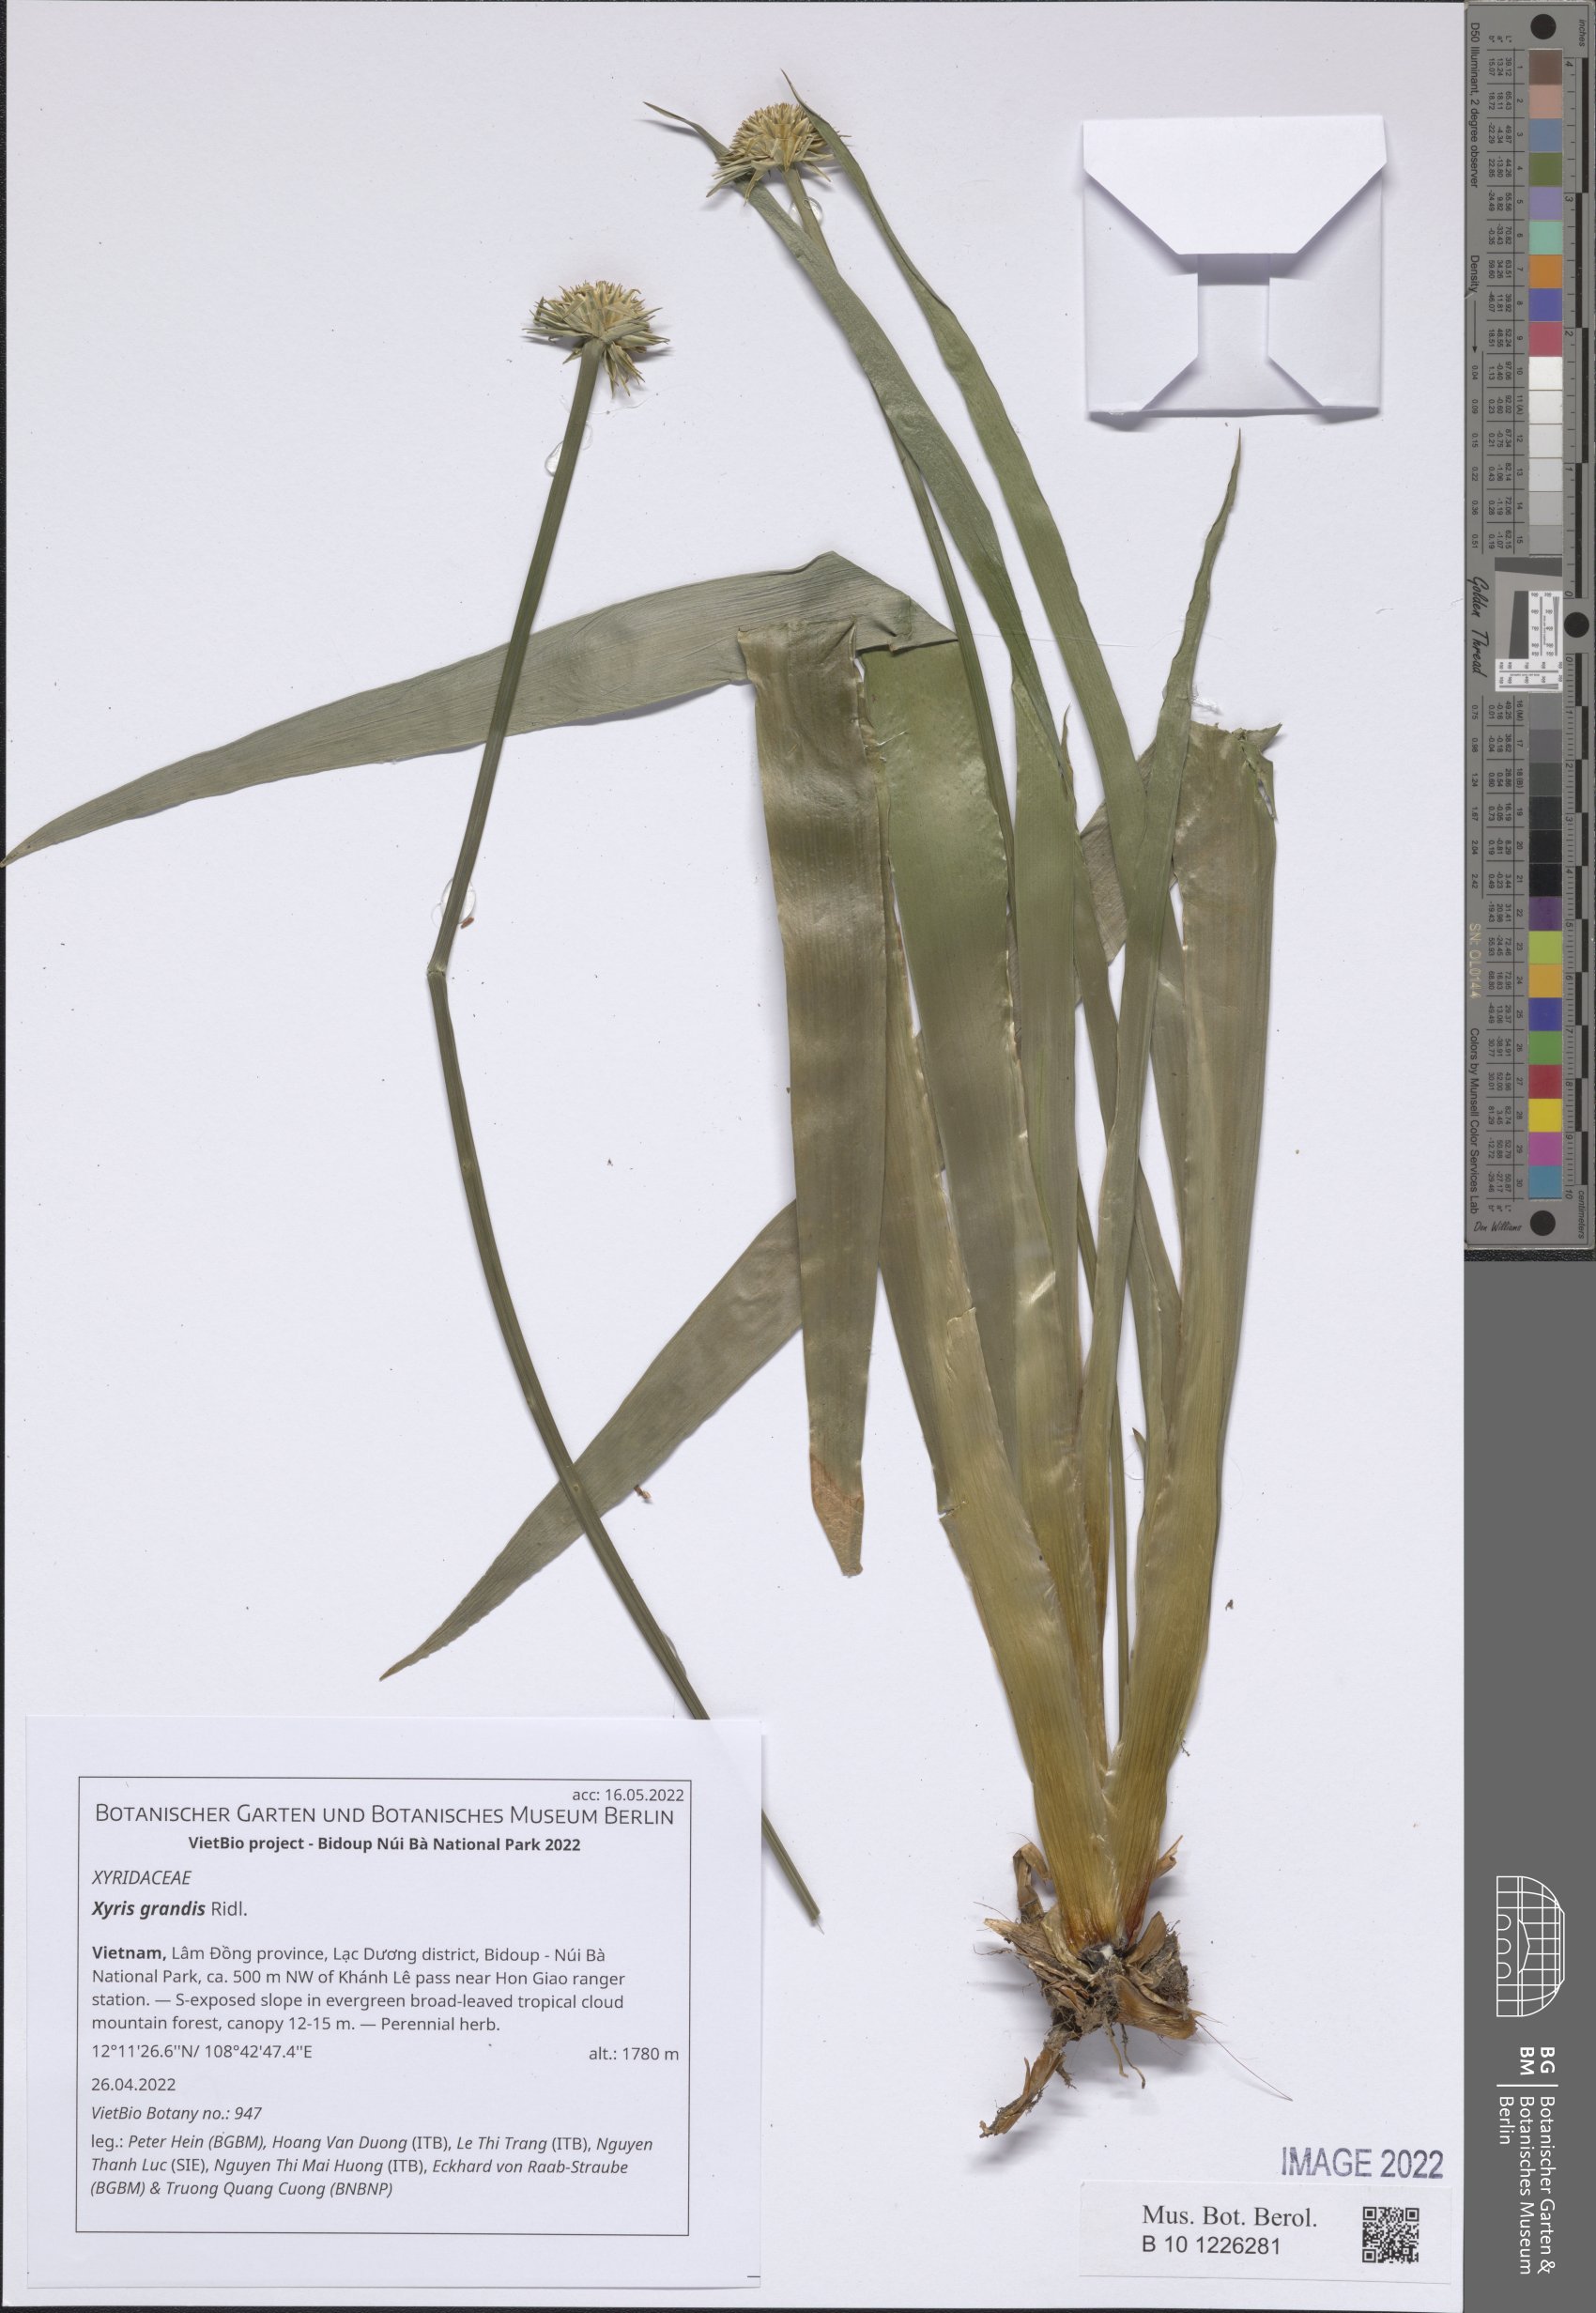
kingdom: Plantae
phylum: Tracheophyta
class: Liliopsida
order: Poales
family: Xyridaceae
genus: Xyris
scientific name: Xyris grandis
